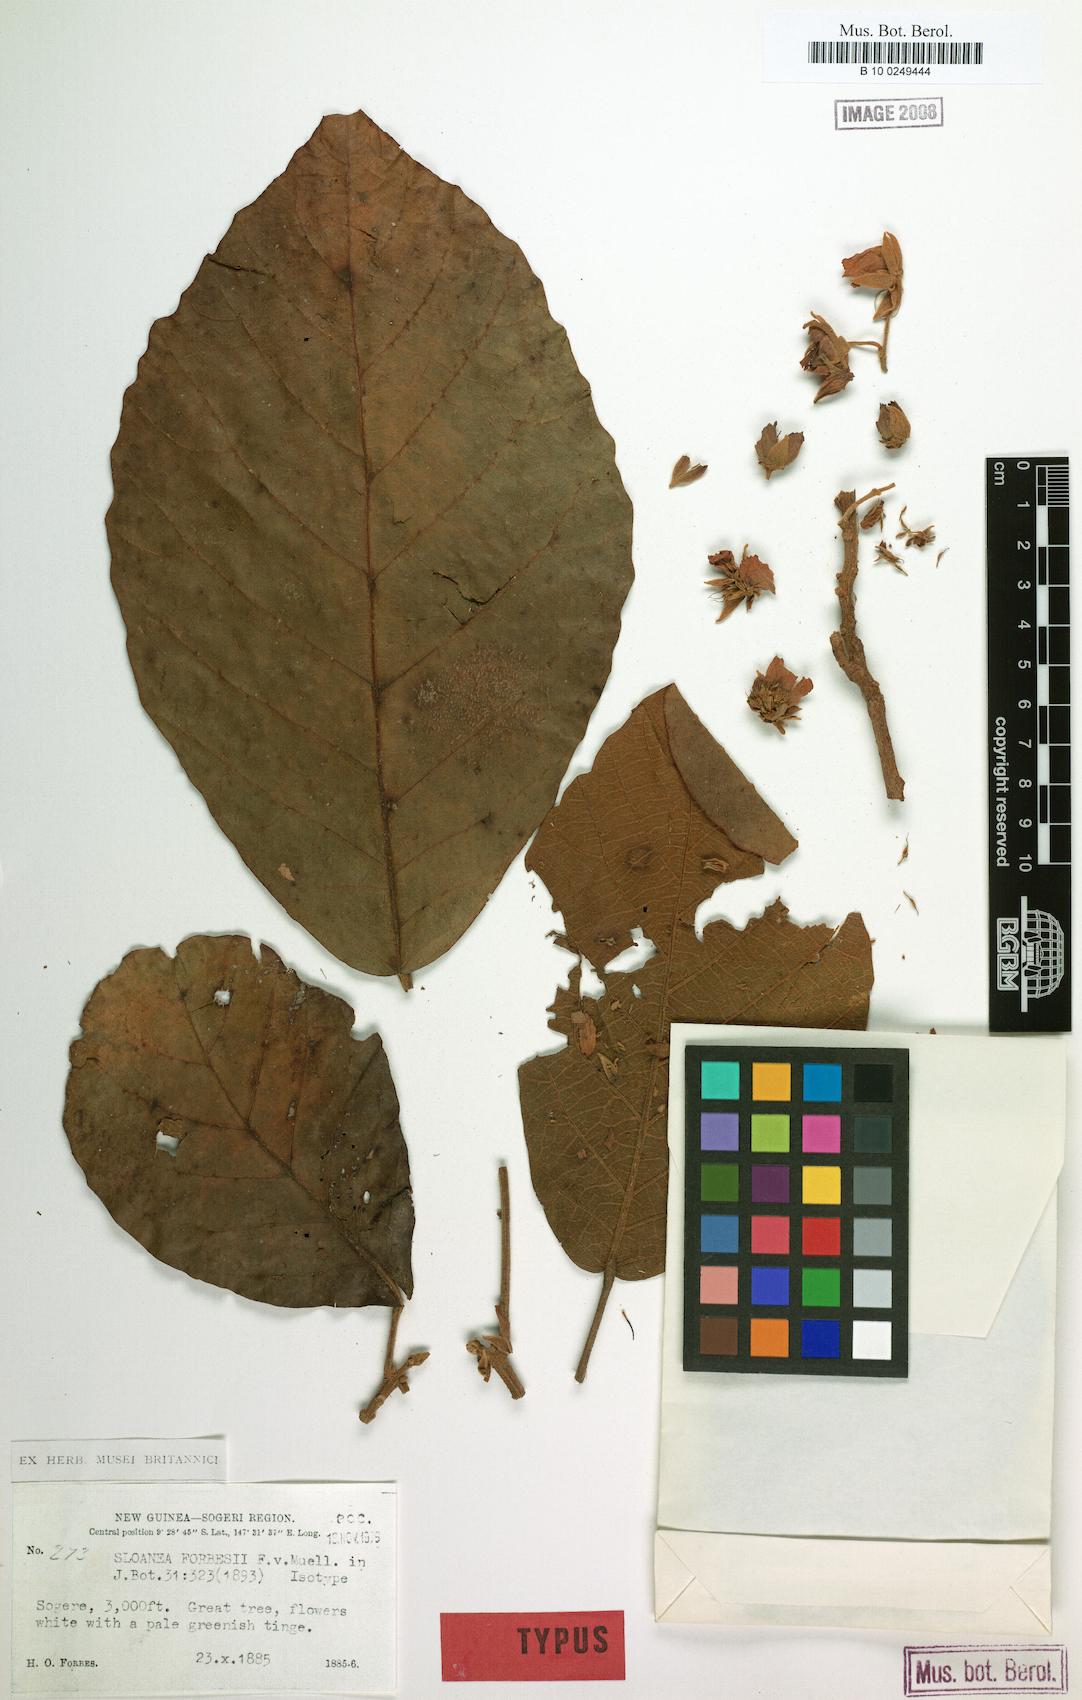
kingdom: Plantae
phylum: Tracheophyta
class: Magnoliopsida
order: Oxalidales
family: Elaeocarpaceae
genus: Sloanea
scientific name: Sloanea forbesii
